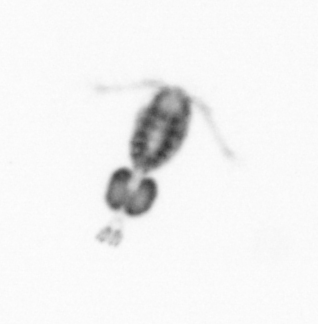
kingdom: Animalia
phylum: Arthropoda
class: Copepoda
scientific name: Copepoda
